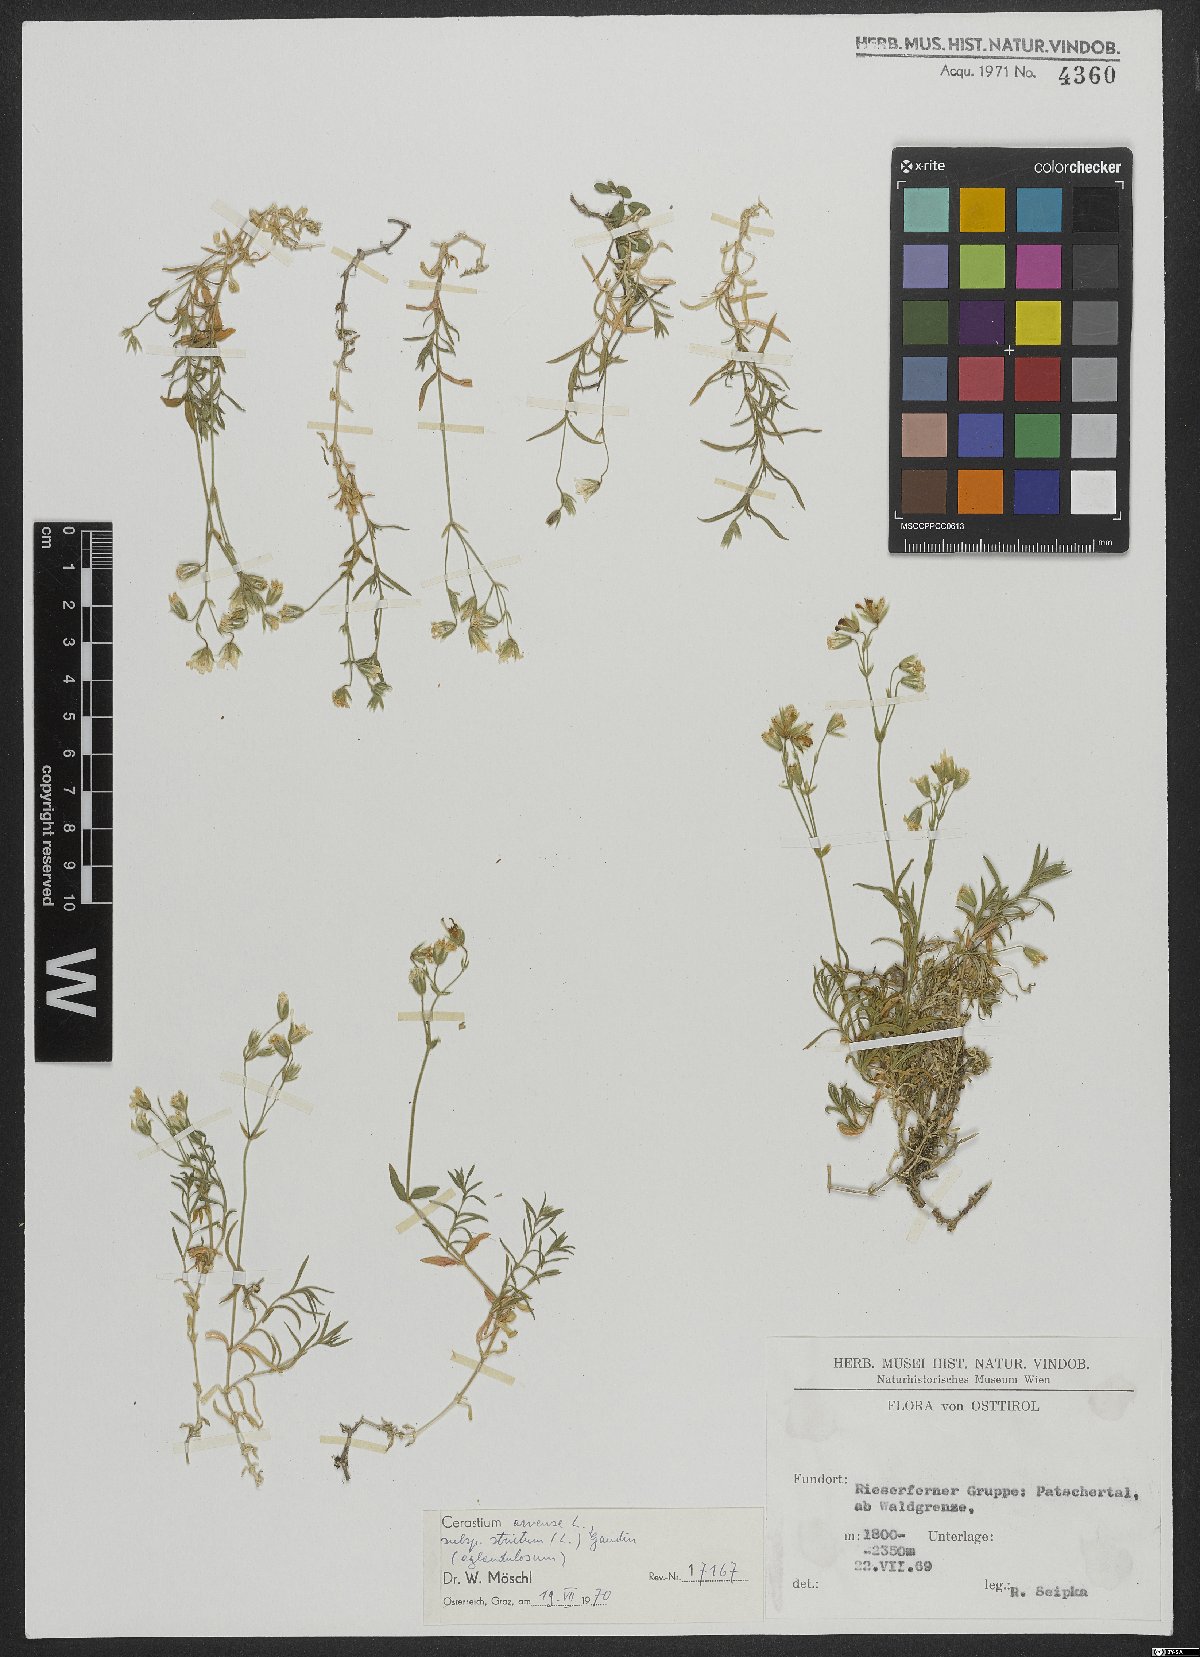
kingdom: Plantae
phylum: Tracheophyta
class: Magnoliopsida
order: Caryophyllales
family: Caryophyllaceae
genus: Cerastium
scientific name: Cerastium elongatum
